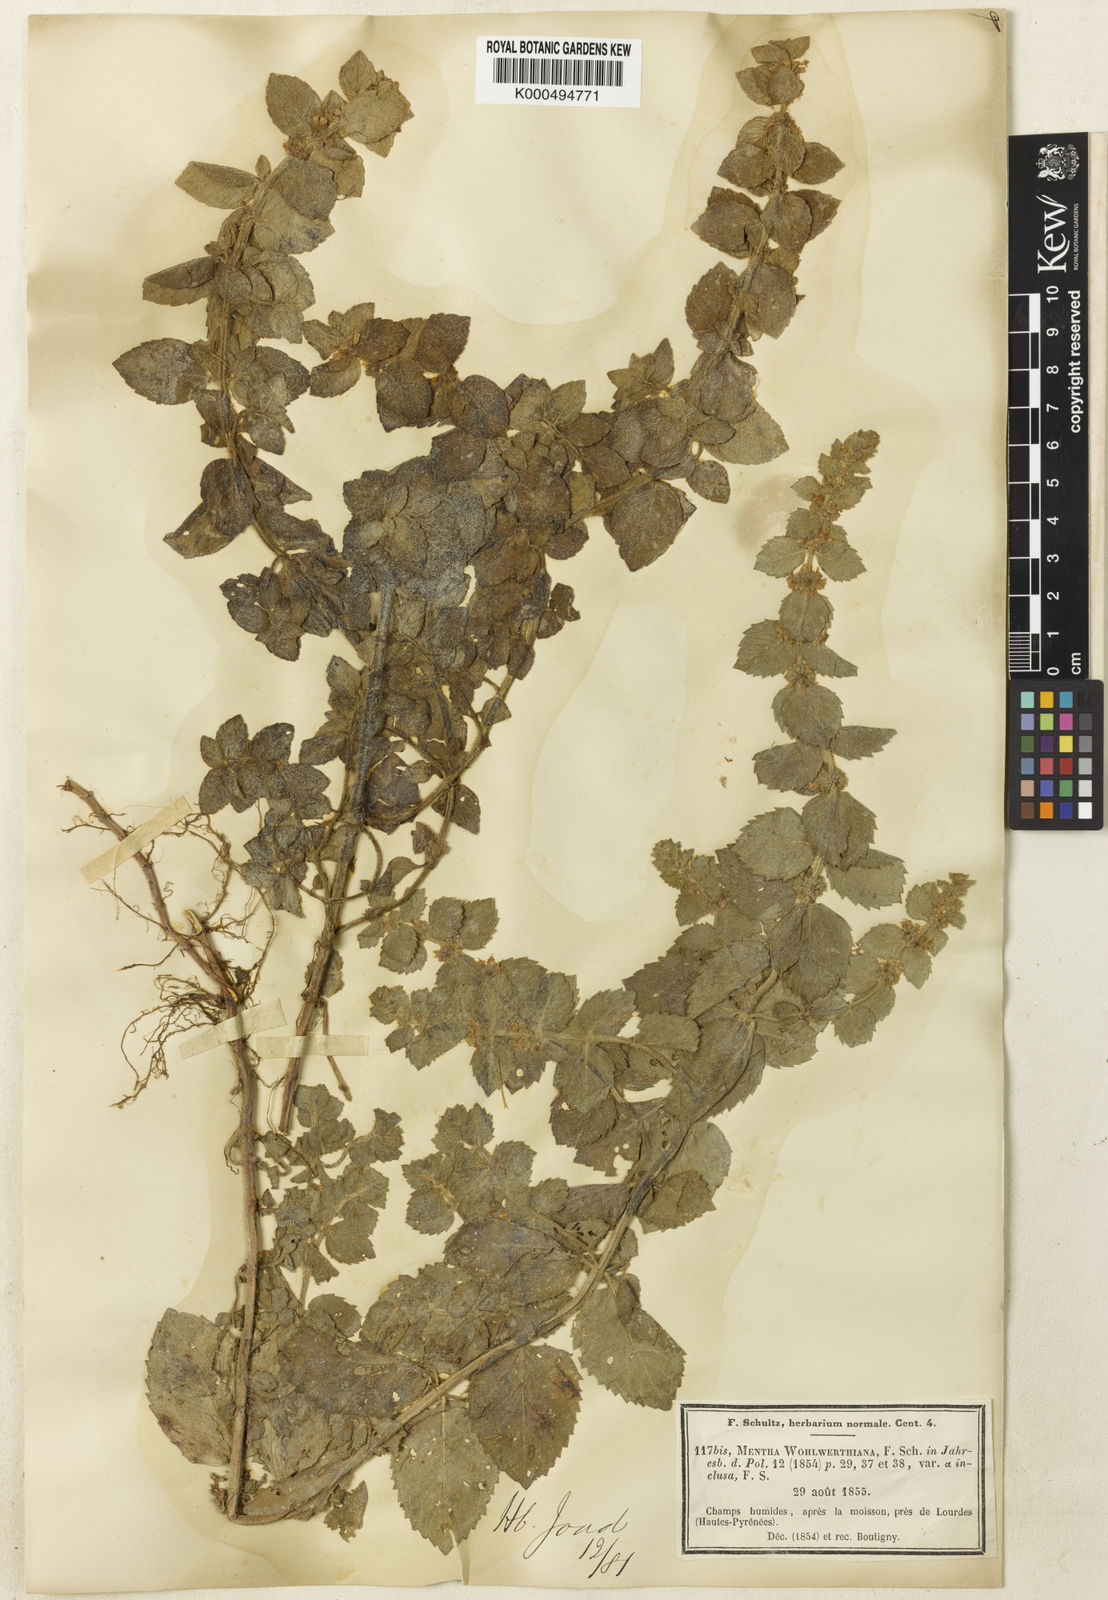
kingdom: Plantae
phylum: Tracheophyta
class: Magnoliopsida
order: Lamiales
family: Lamiaceae
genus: Mentha
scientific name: Mentha carinthiaca
